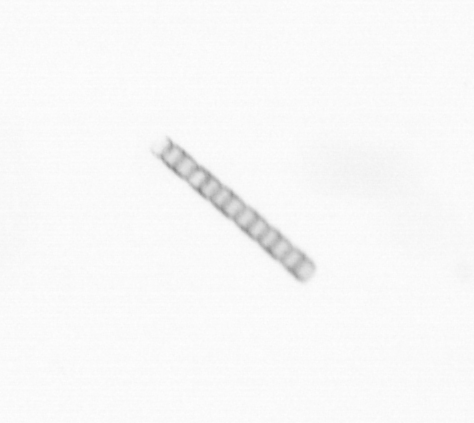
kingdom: Chromista
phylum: Ochrophyta
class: Bacillariophyceae
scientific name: Bacillariophyceae
